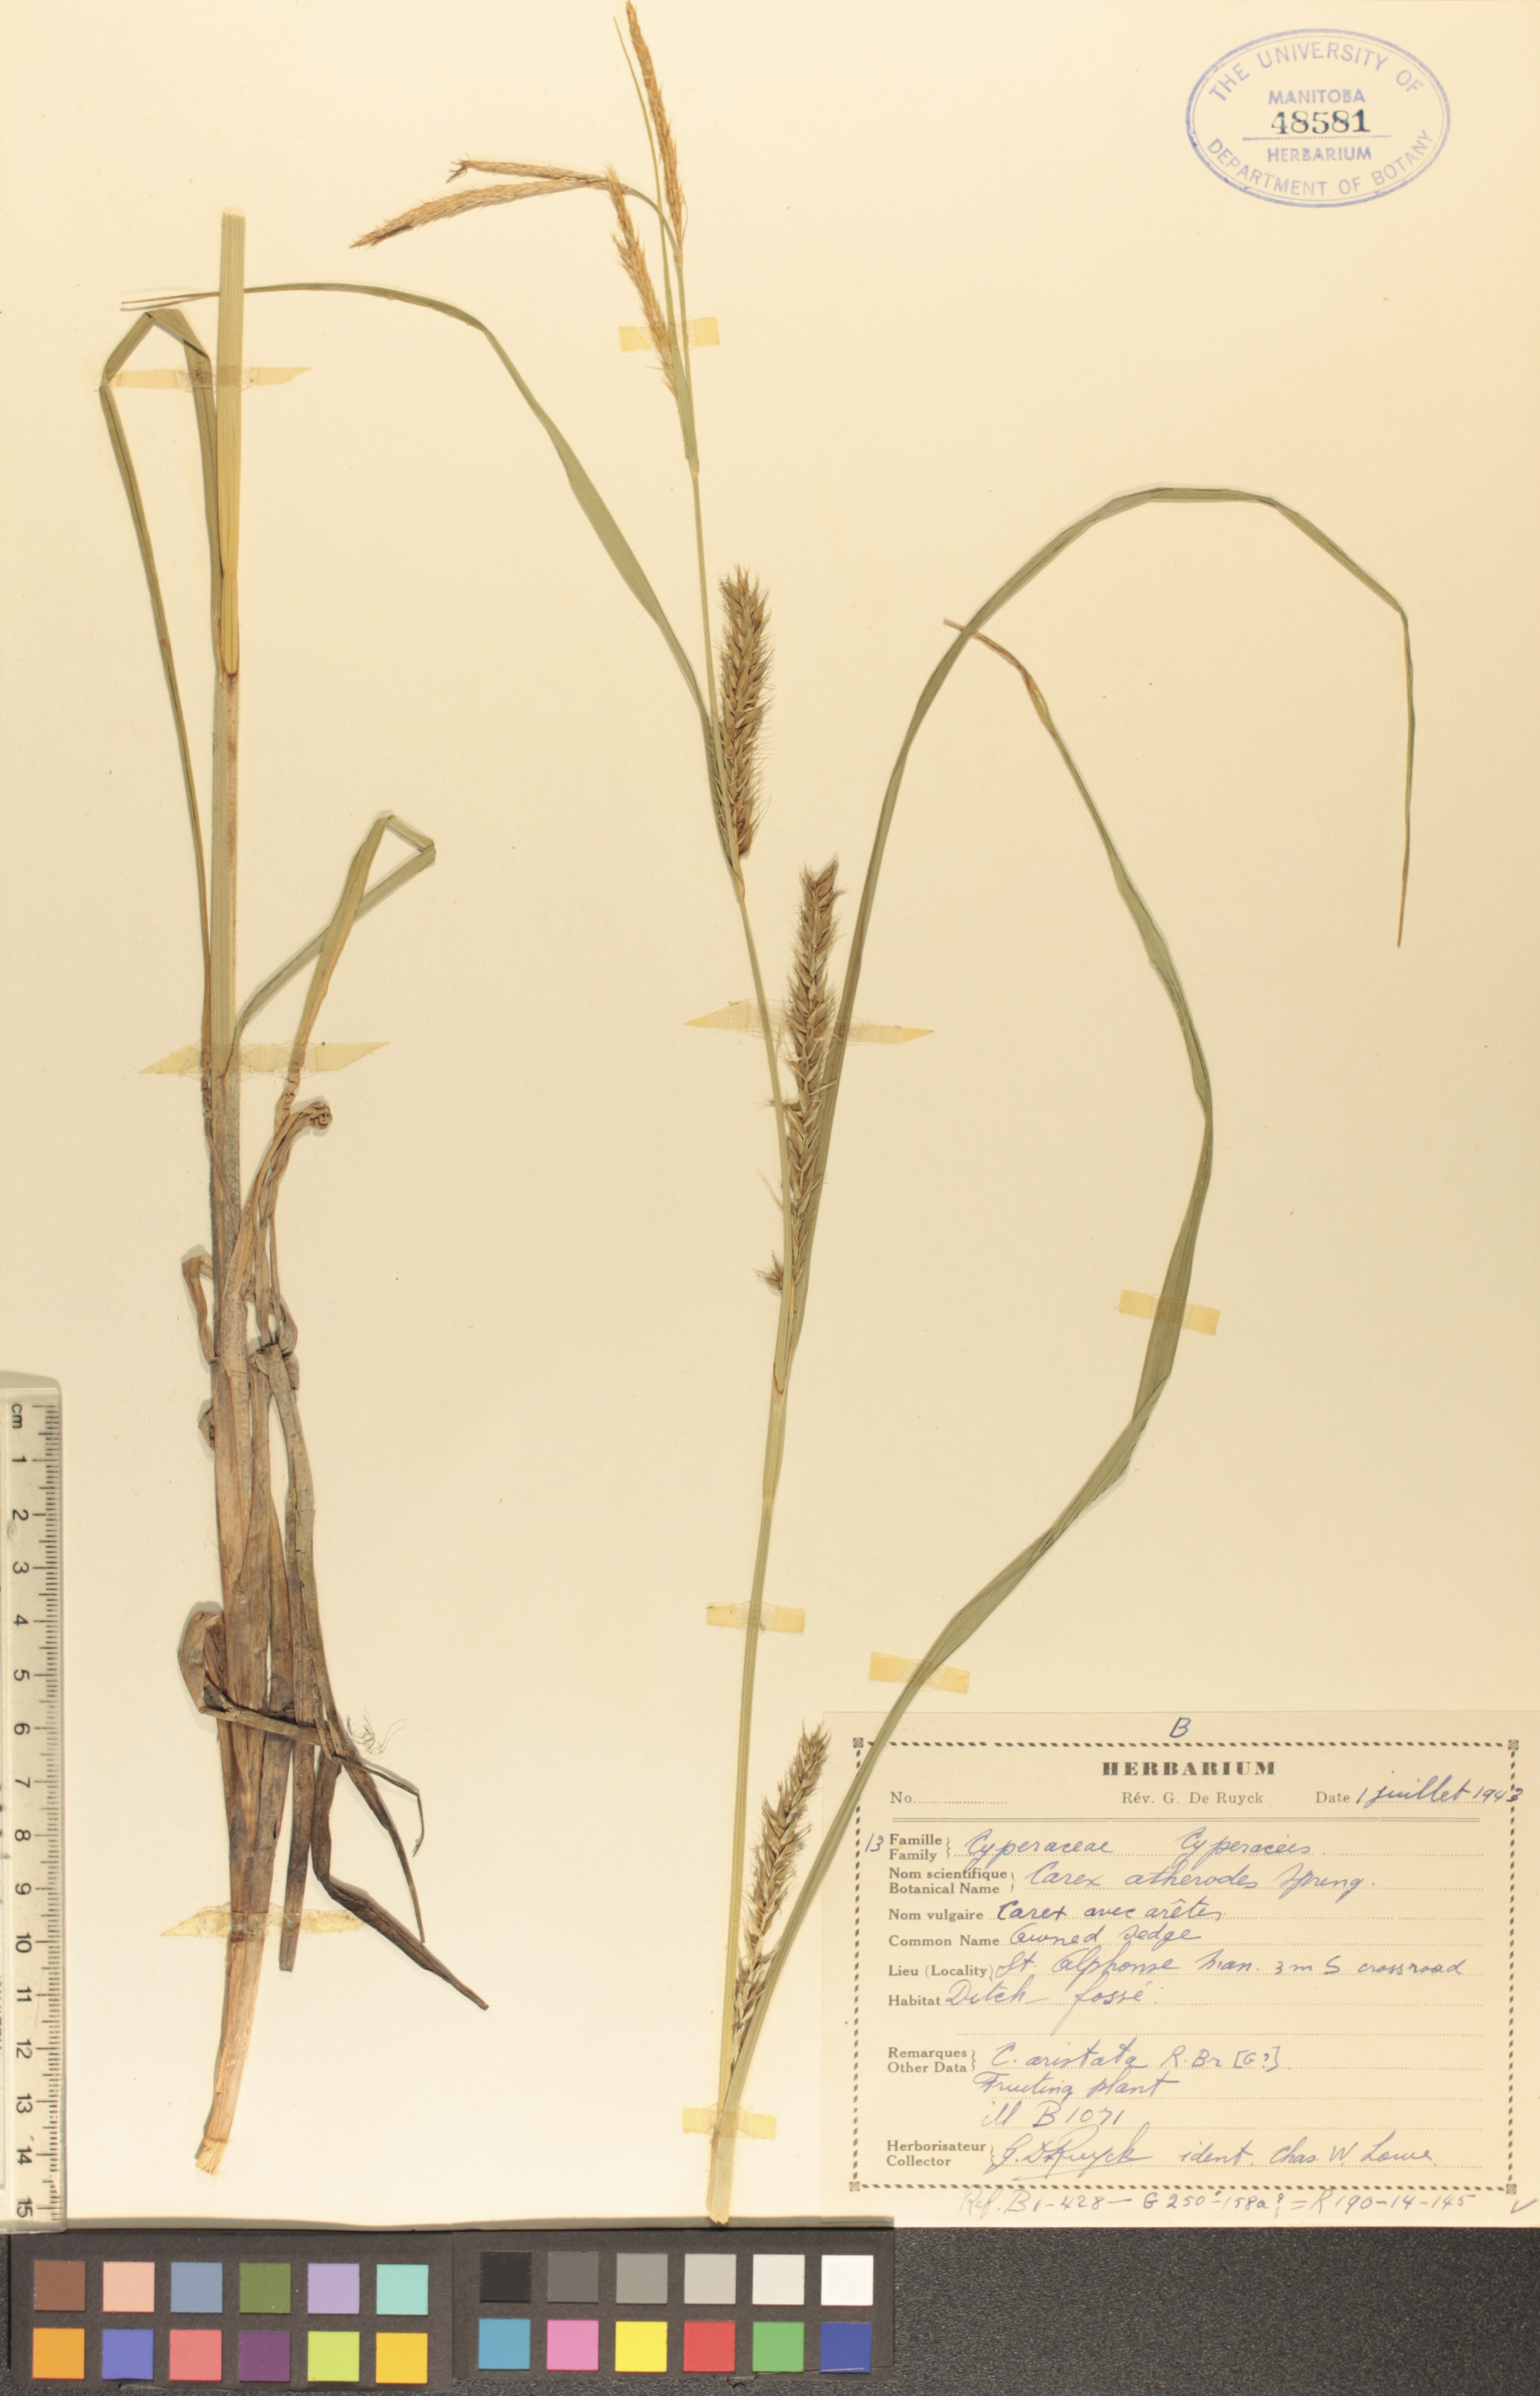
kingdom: Plantae
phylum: Tracheophyta
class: Liliopsida
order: Poales
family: Cyperaceae
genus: Carex
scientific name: Carex atherodes
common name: Wheat sedge
